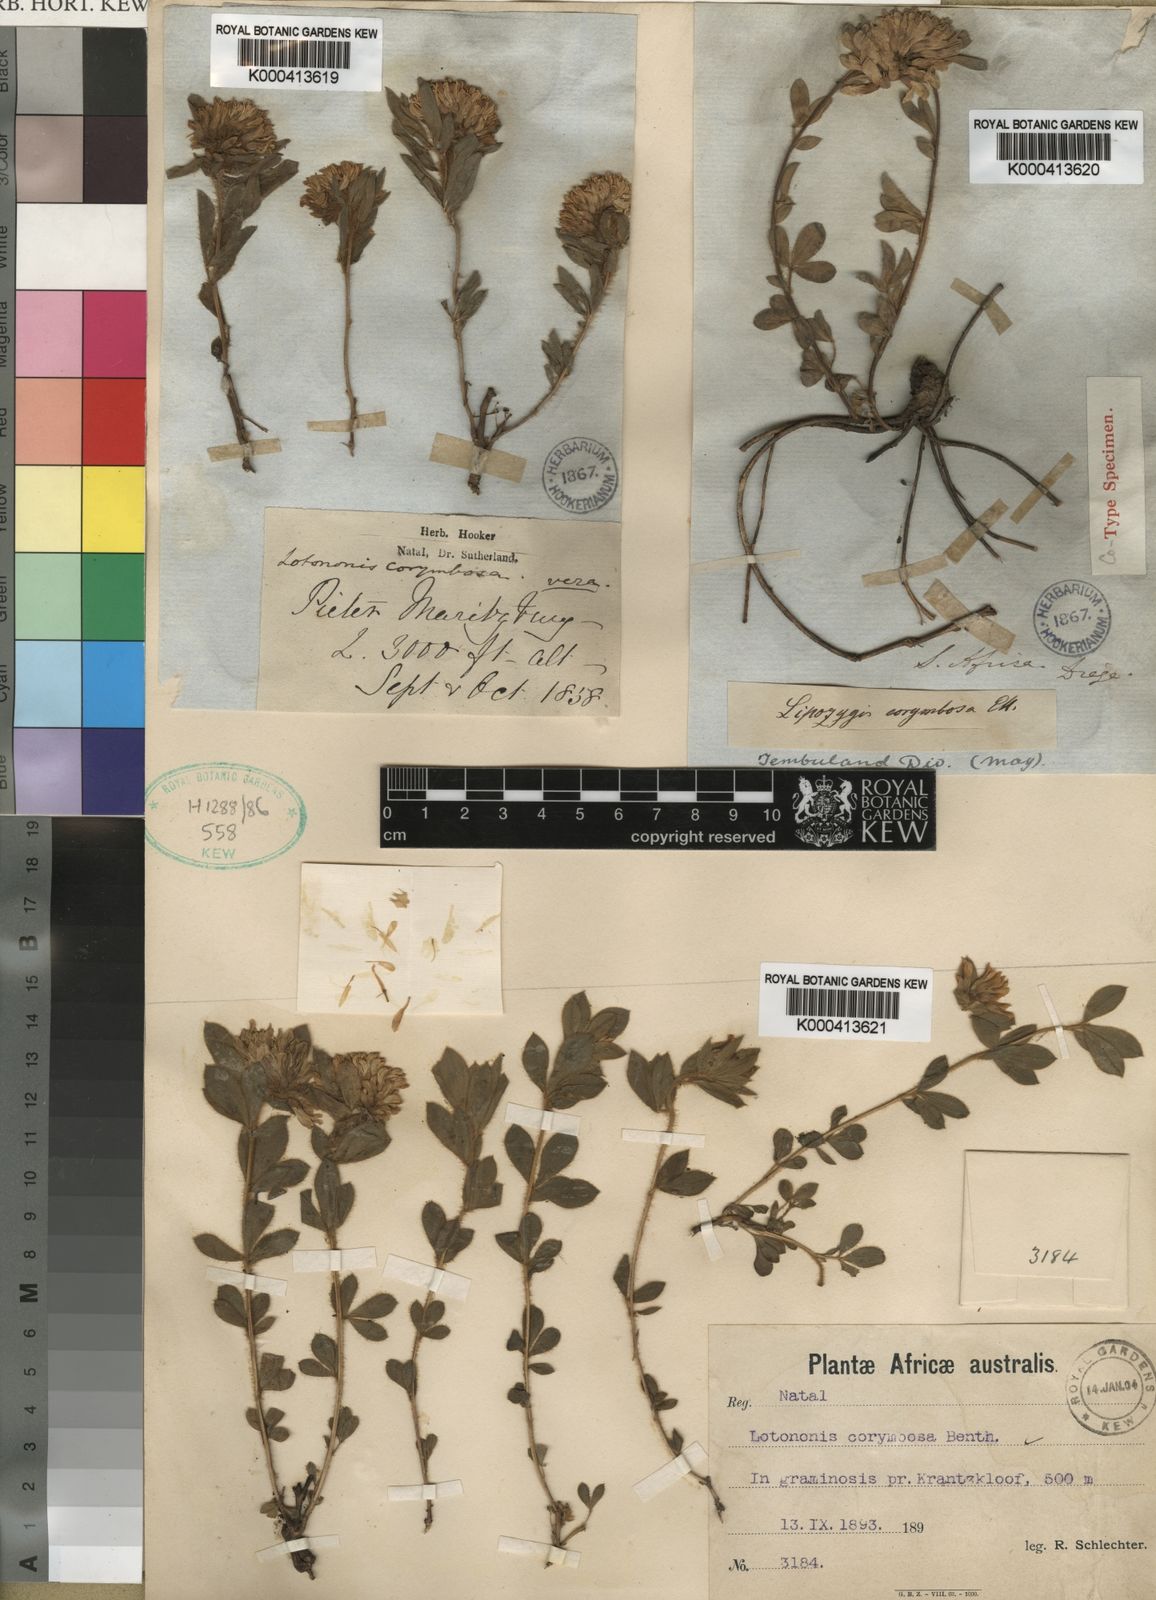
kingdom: Plantae
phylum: Tracheophyta
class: Magnoliopsida
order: Fabales
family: Fabaceae
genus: Leobordea
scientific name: Leobordea corymbosa
